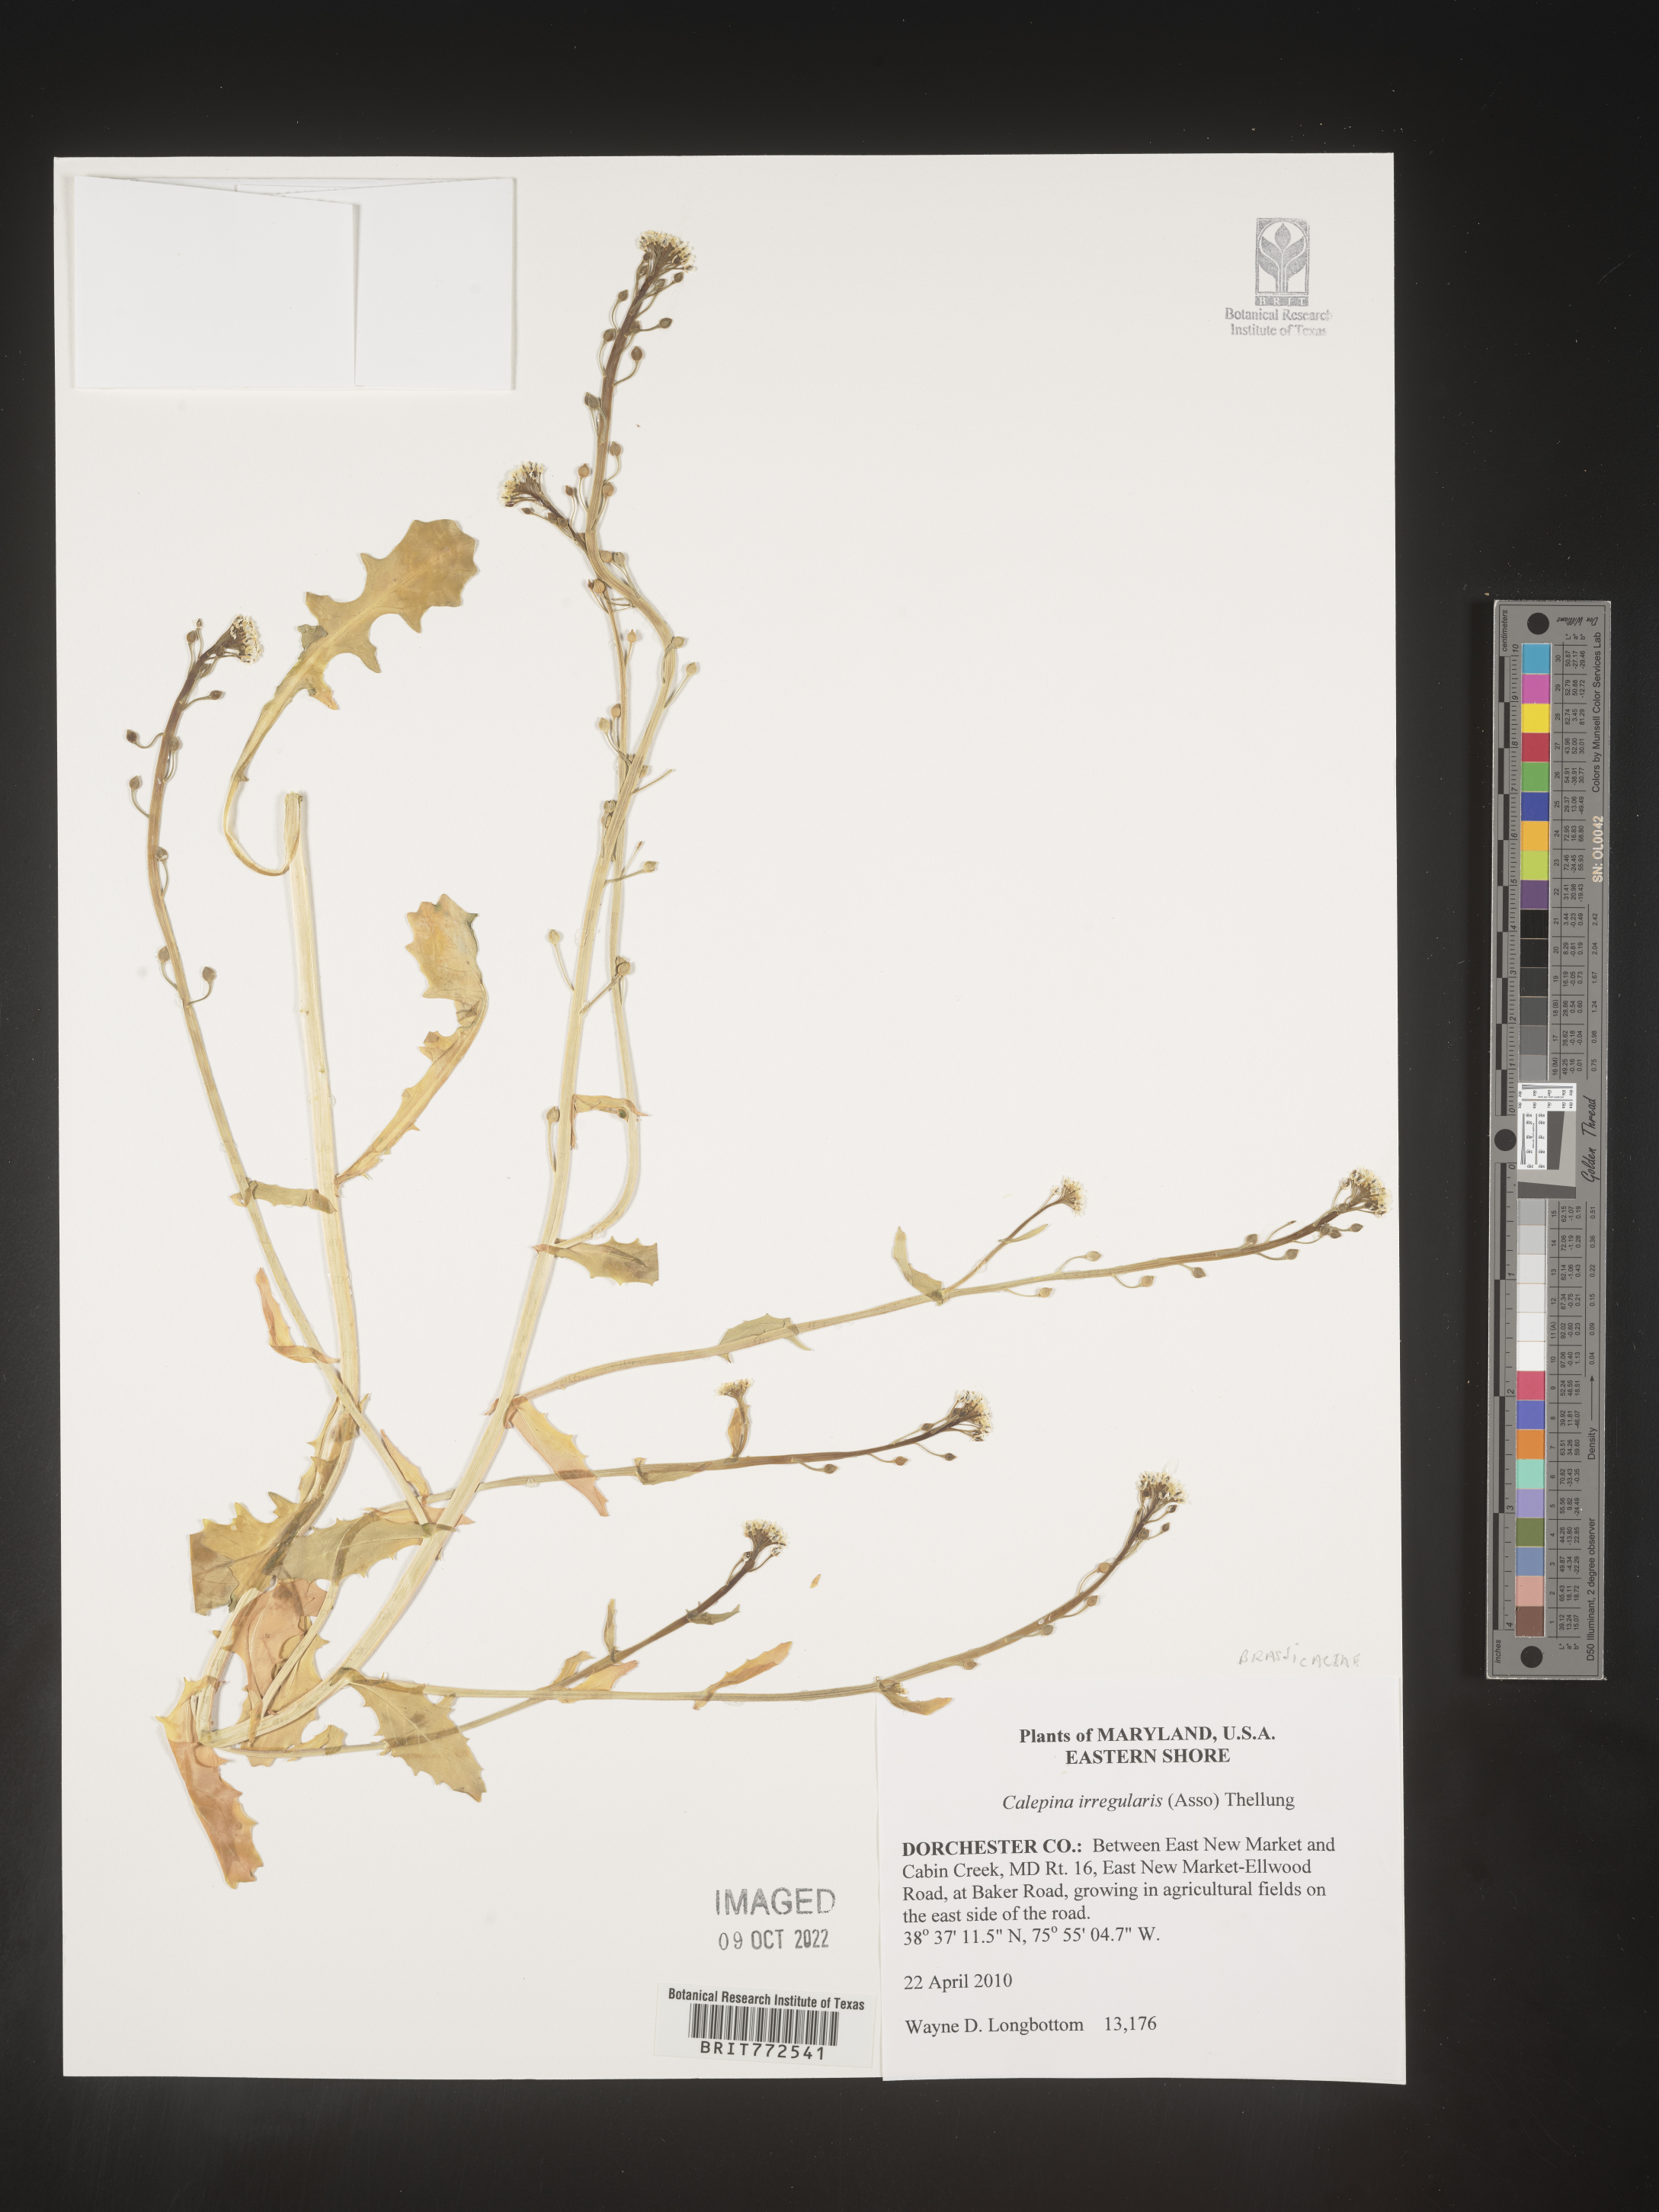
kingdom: Plantae
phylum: Tracheophyta
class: Magnoliopsida
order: Brassicales
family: Brassicaceae
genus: Calepina
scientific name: Calepina
